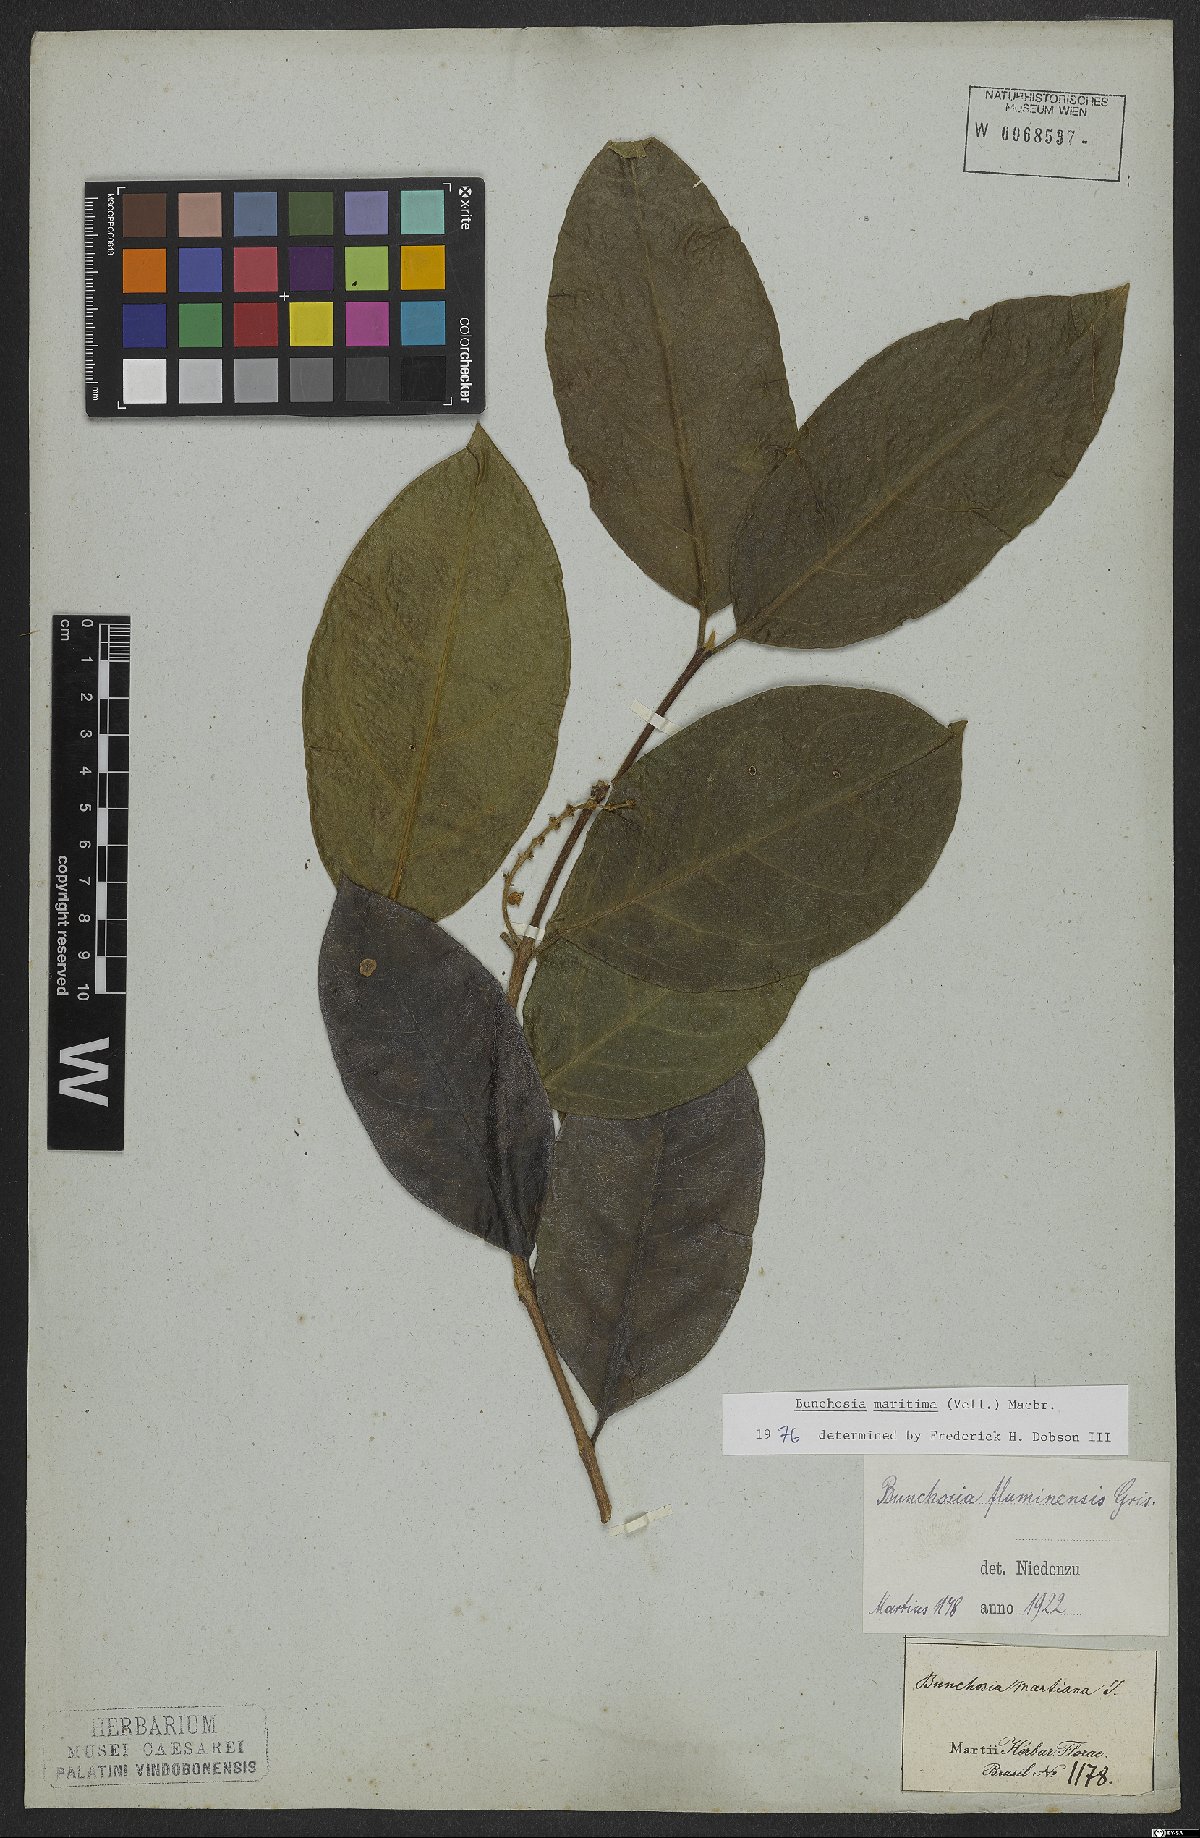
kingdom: Plantae
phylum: Tracheophyta
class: Magnoliopsida
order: Malpighiales
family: Malpighiaceae
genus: Bunchosia
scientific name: Bunchosia maritima
